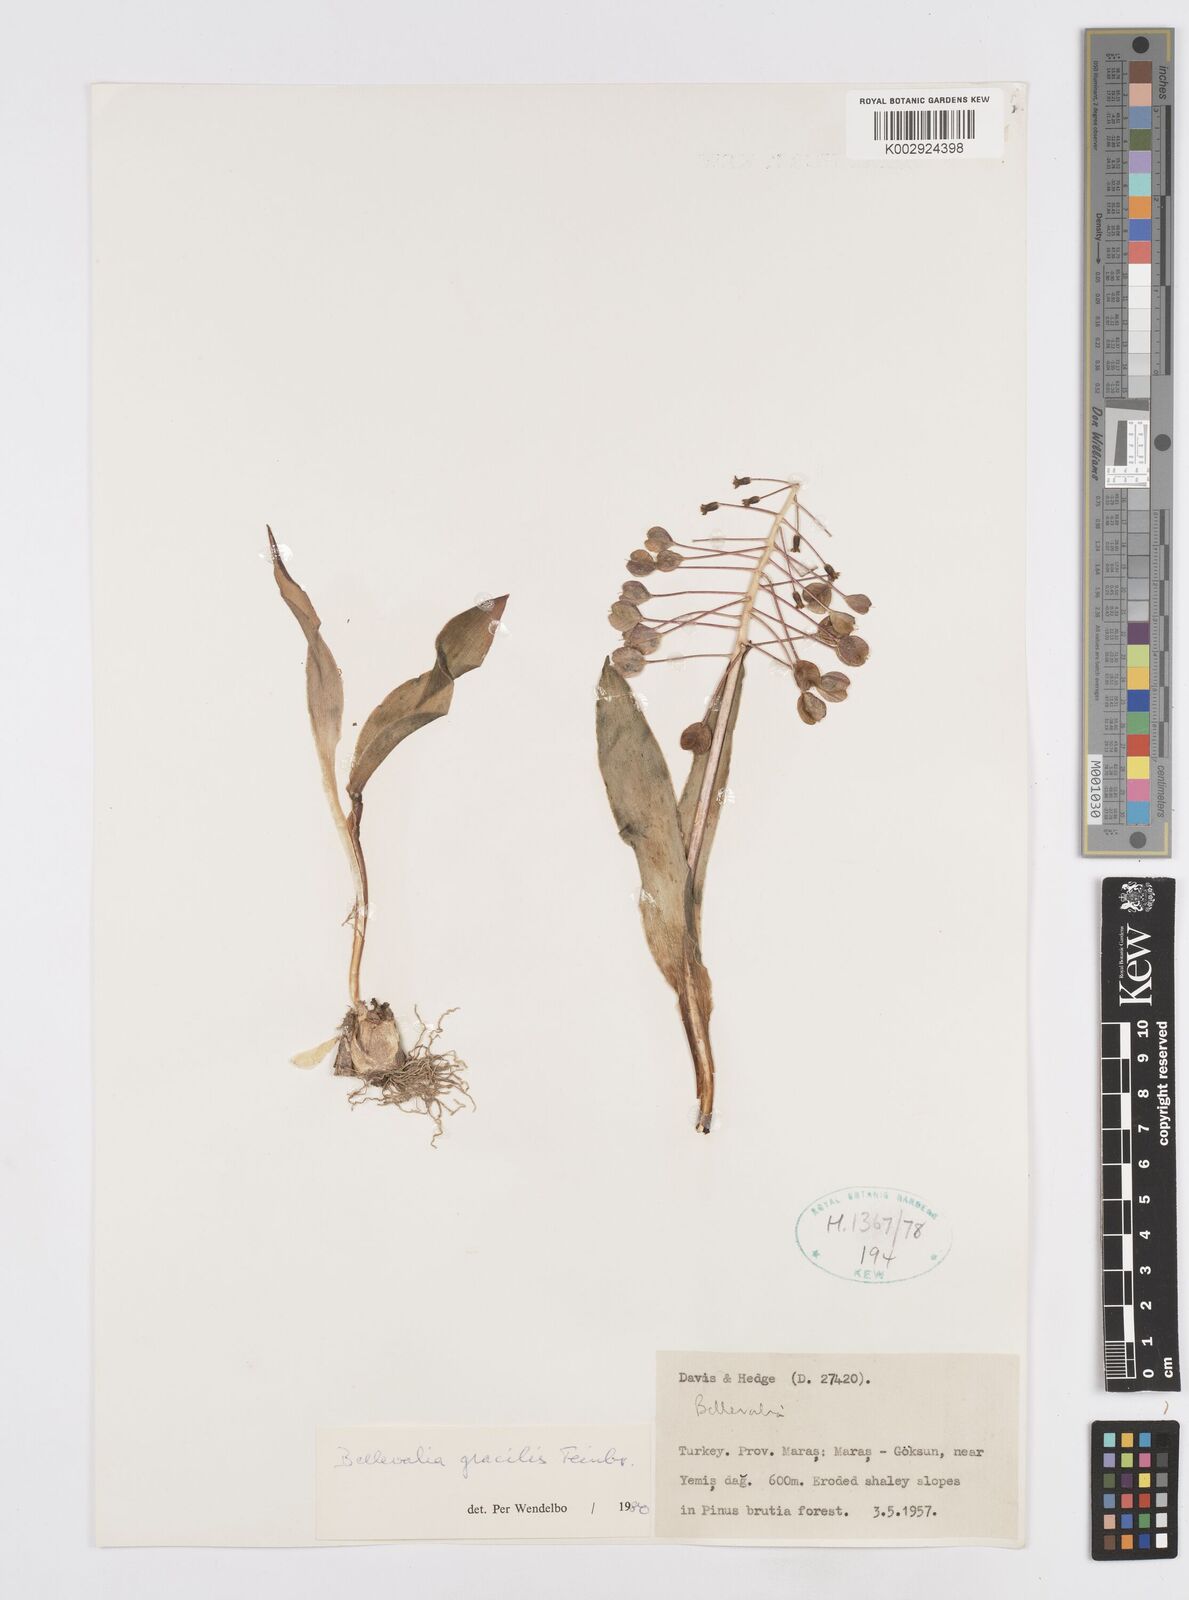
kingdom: Plantae
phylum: Tracheophyta
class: Liliopsida
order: Asparagales
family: Asparagaceae
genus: Bellevalia
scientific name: Bellevalia gracilis
